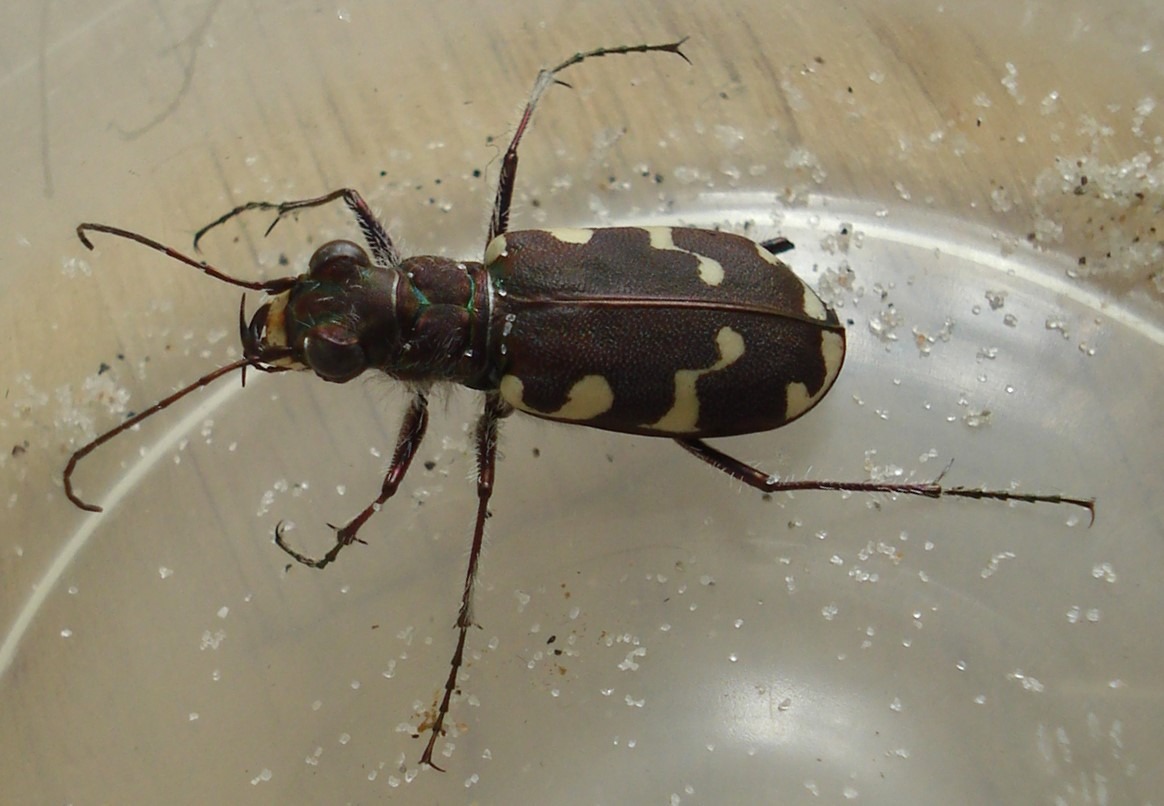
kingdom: Animalia
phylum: Arthropoda
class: Insecta
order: Coleoptera
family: Carabidae
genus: Cicindela
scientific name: Cicindela maritima
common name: Klitsandspringer
